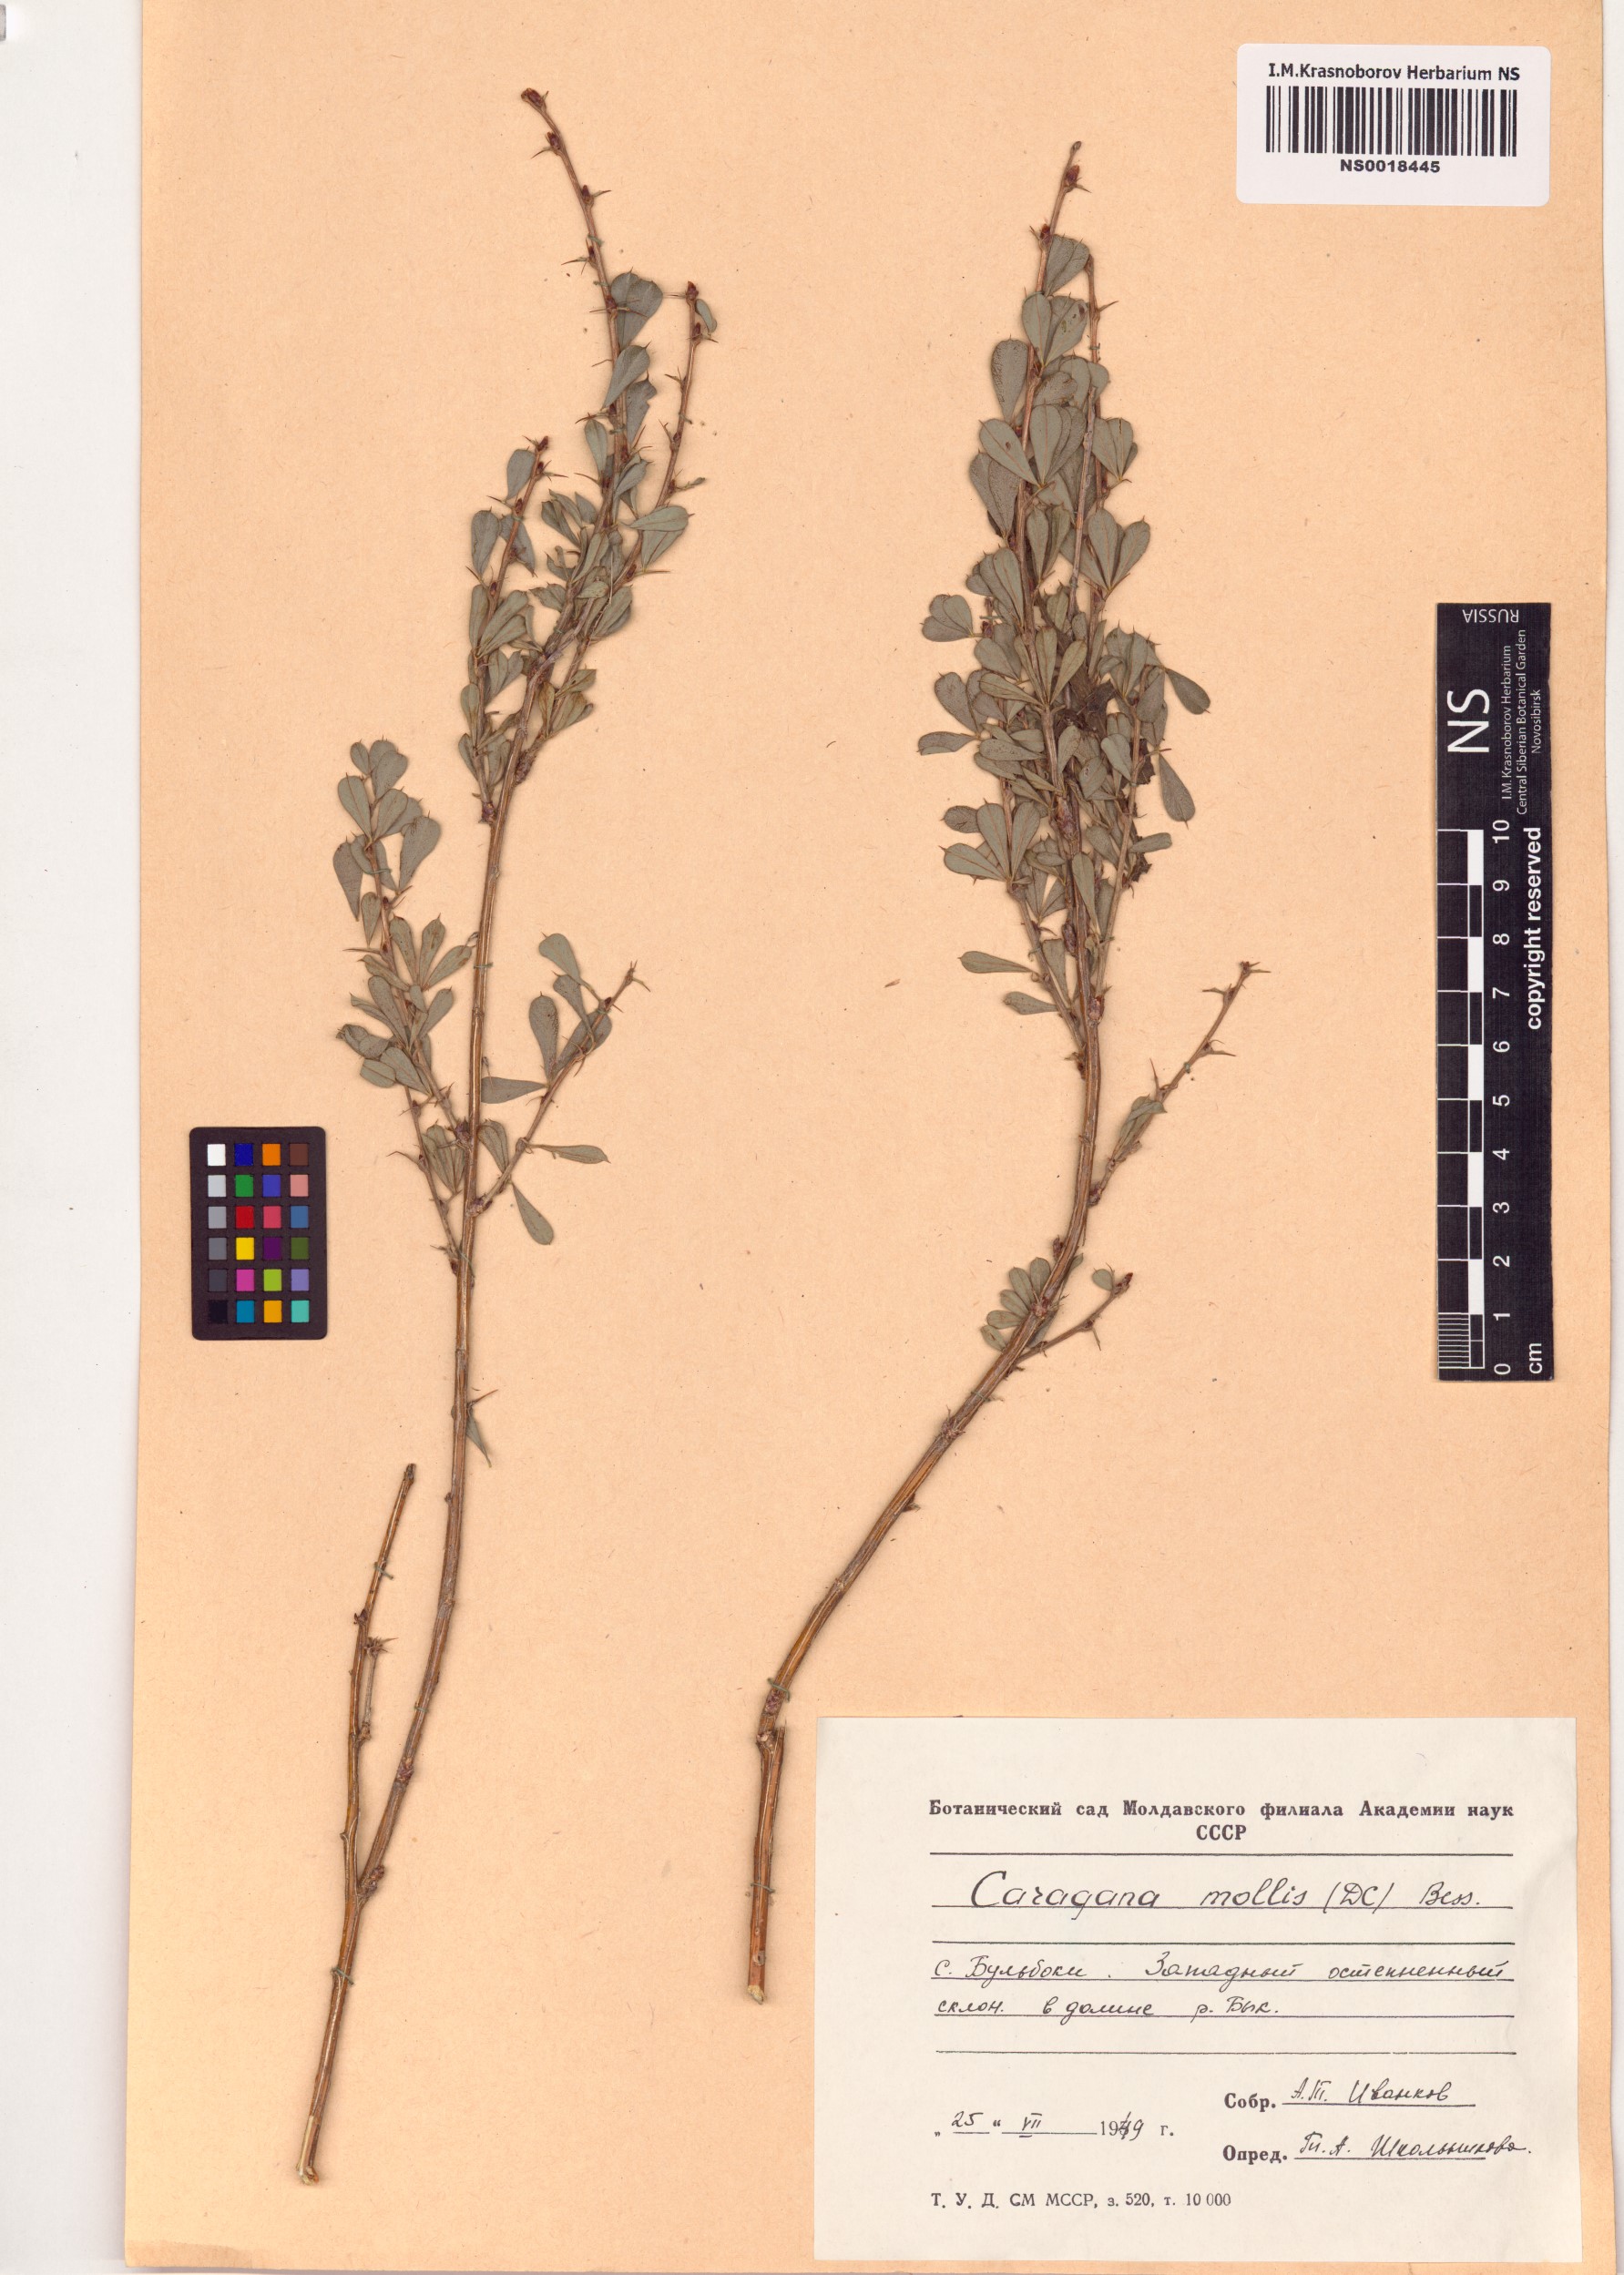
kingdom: Plantae
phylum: Tracheophyta
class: Magnoliopsida
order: Fabales
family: Fabaceae
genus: Caragana
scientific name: Caragana frutex
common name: Russian peashrub
